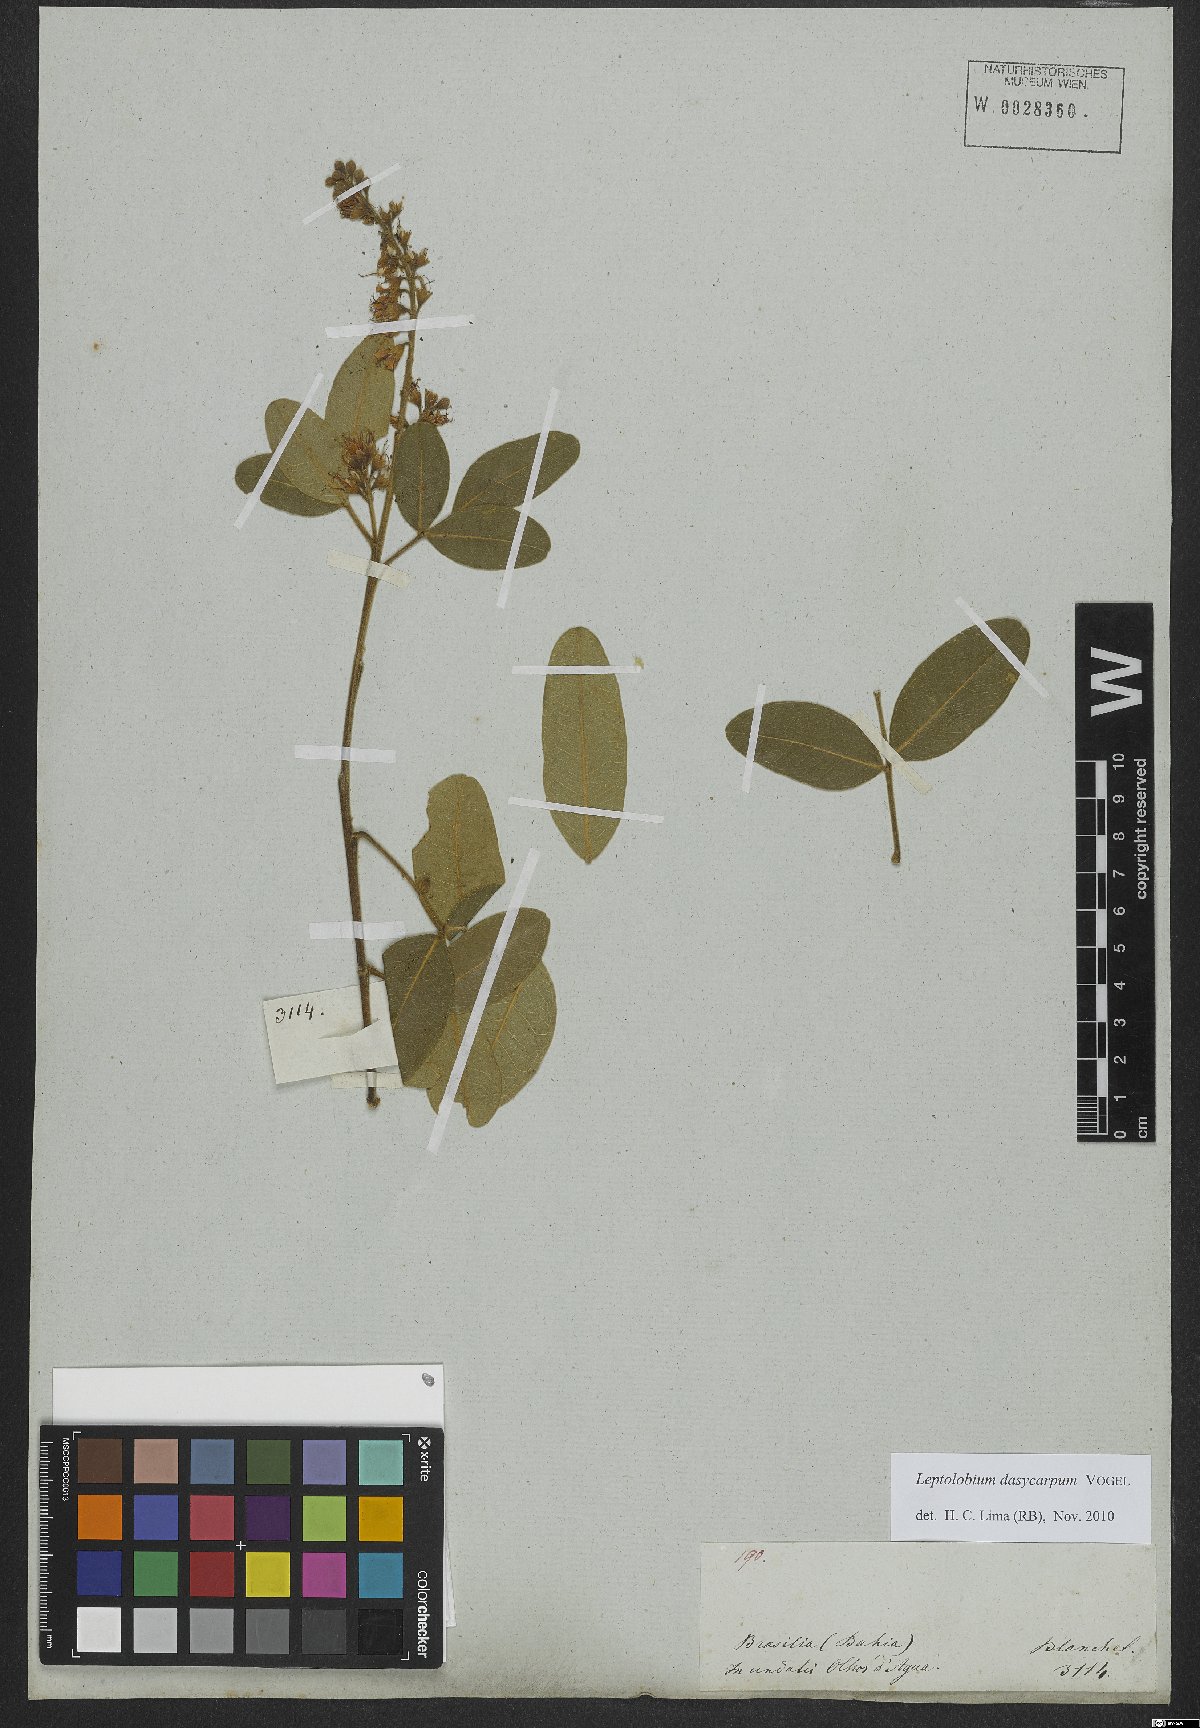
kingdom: Plantae
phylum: Tracheophyta
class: Magnoliopsida
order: Fabales
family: Fabaceae
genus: Leptolobium
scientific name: Leptolobium dasycarpum
